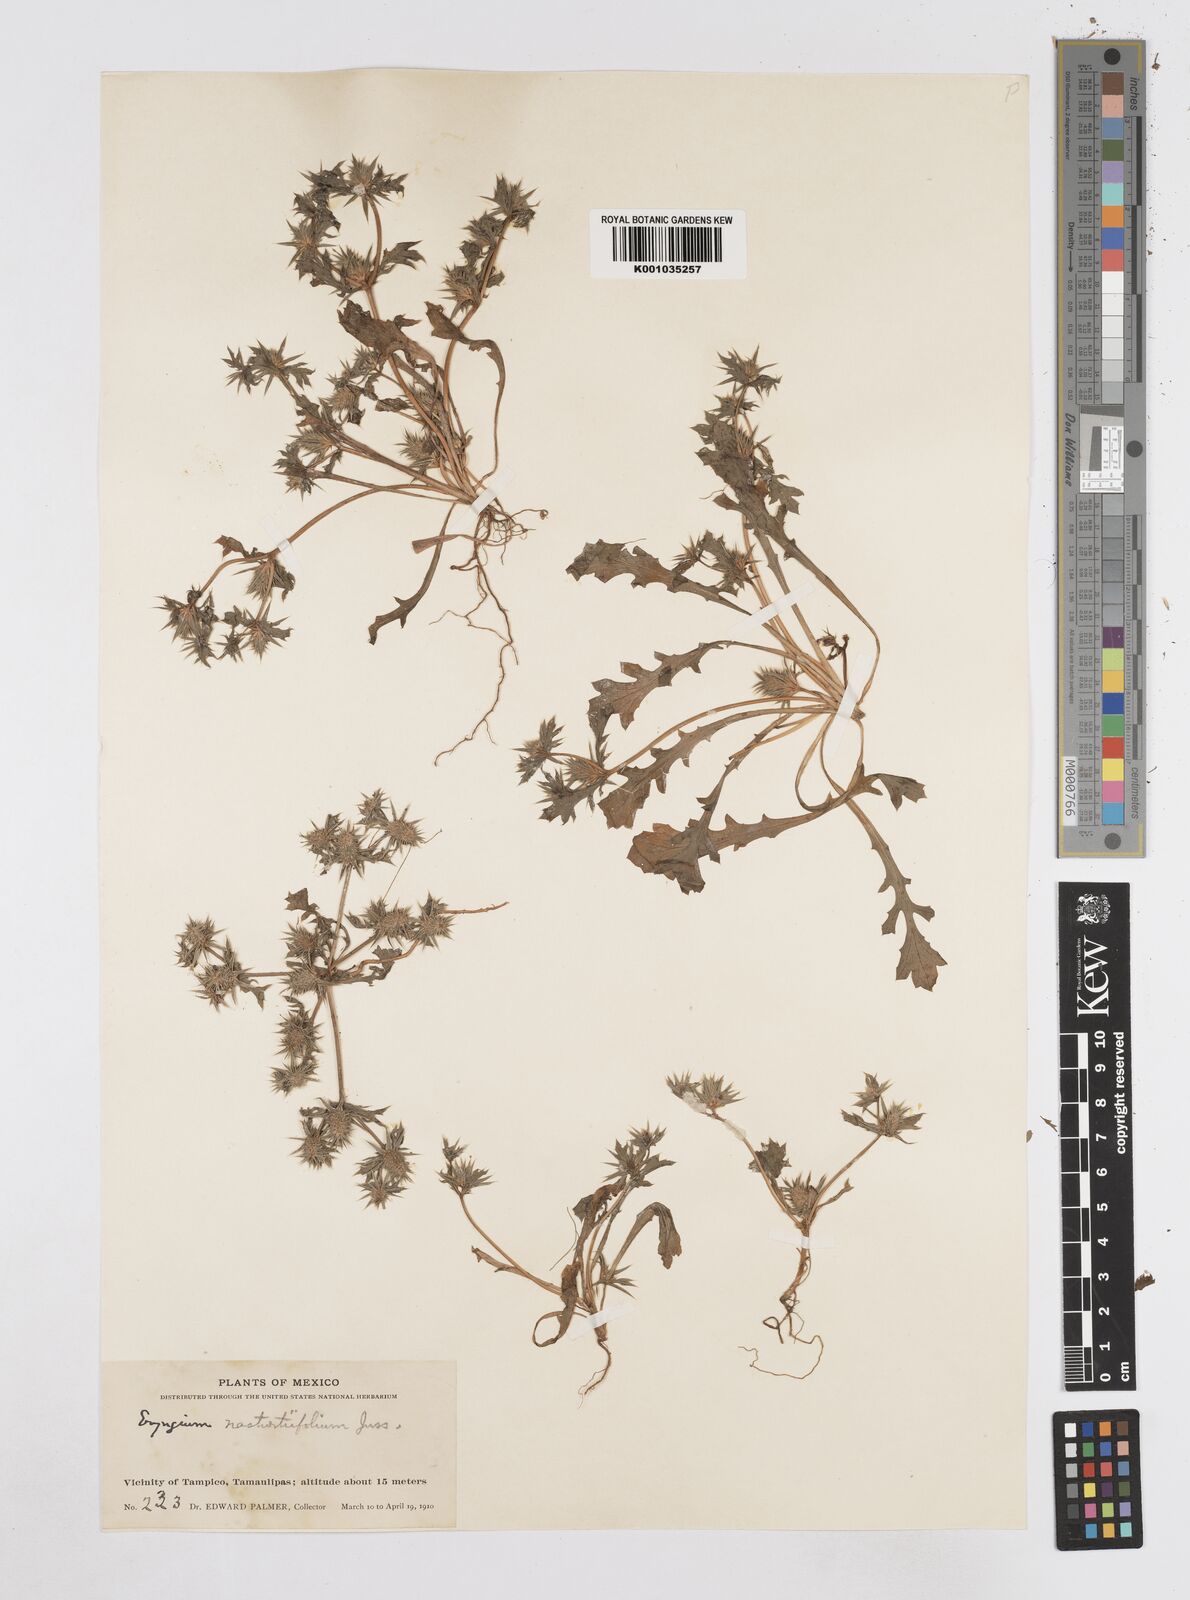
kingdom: Plantae
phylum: Tracheophyta
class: Magnoliopsida
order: Apiales
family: Apiaceae
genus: Eryngium
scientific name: Eryngium nasturtiifolium
